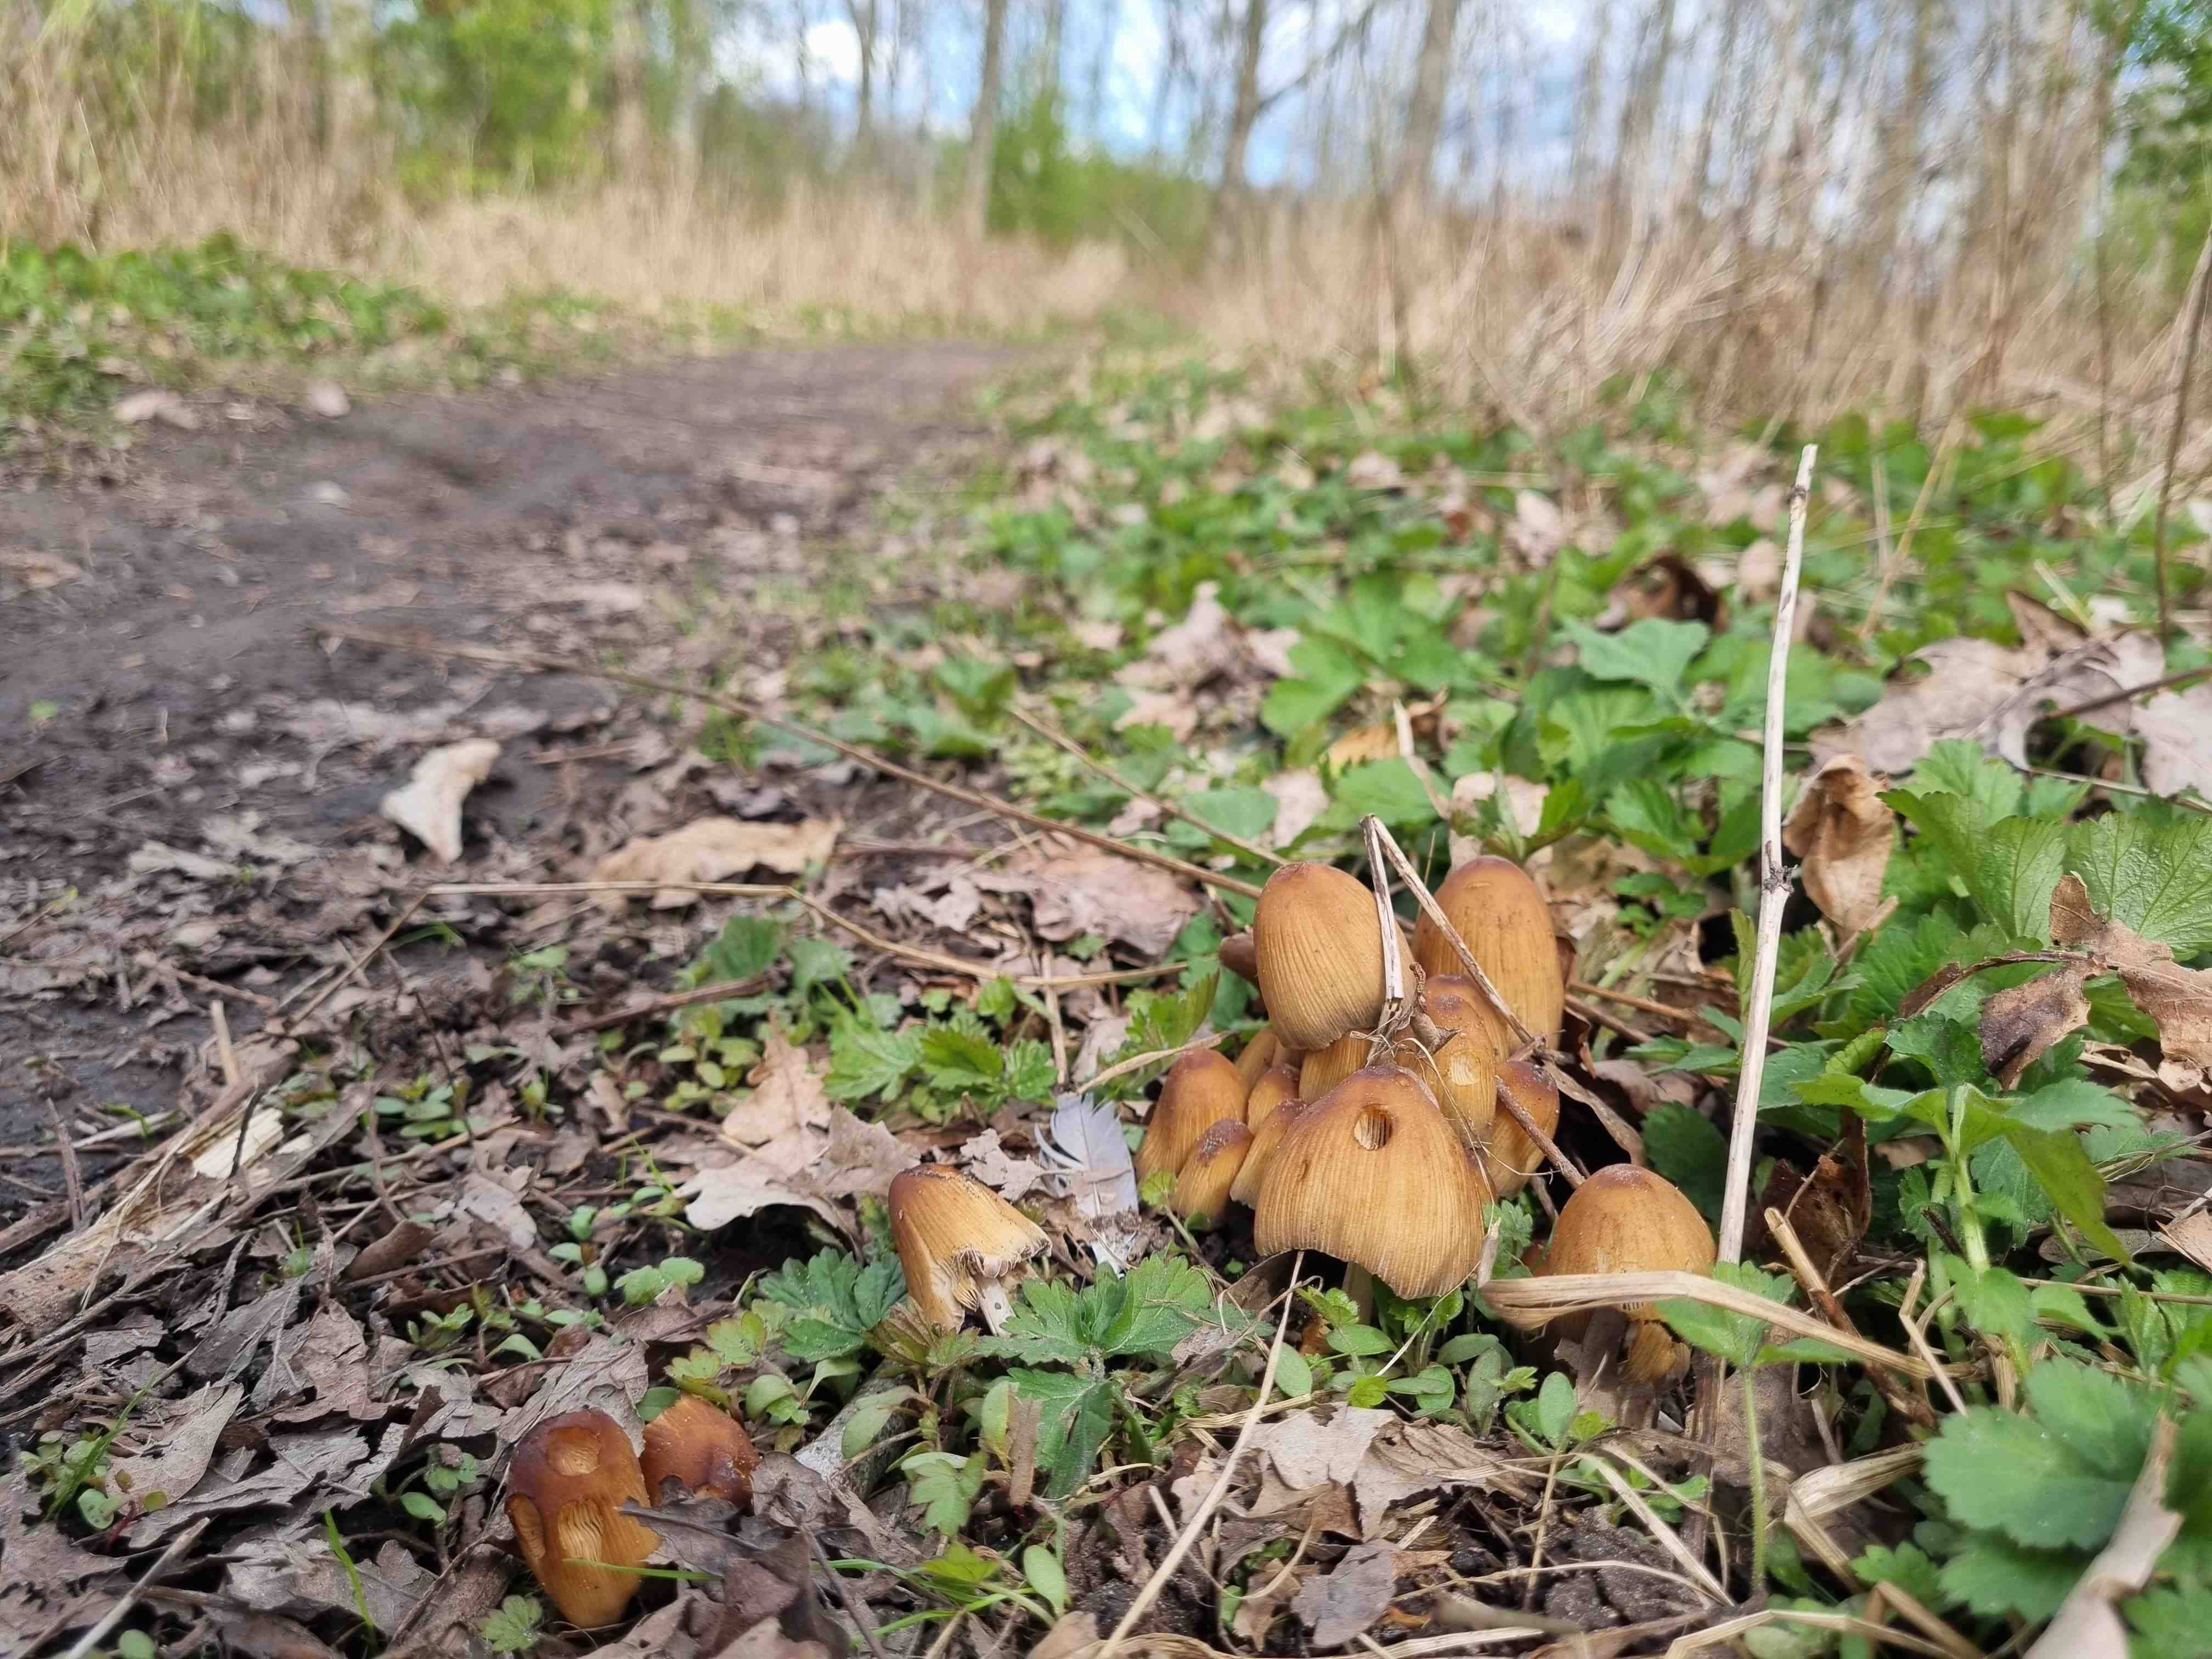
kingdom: Fungi
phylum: Basidiomycota
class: Agaricomycetes
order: Agaricales
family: Psathyrellaceae
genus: Coprinellus
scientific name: Coprinellus micaceus
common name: glimmer-blækhat
